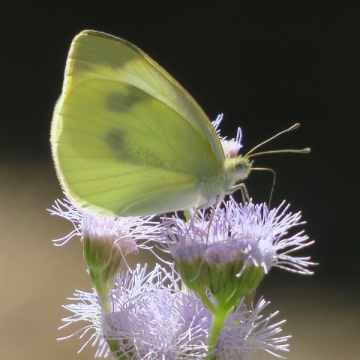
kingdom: Animalia
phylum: Arthropoda
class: Insecta
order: Lepidoptera
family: Pieridae
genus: Pieris
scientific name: Pieris rapae
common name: Cabbage White
